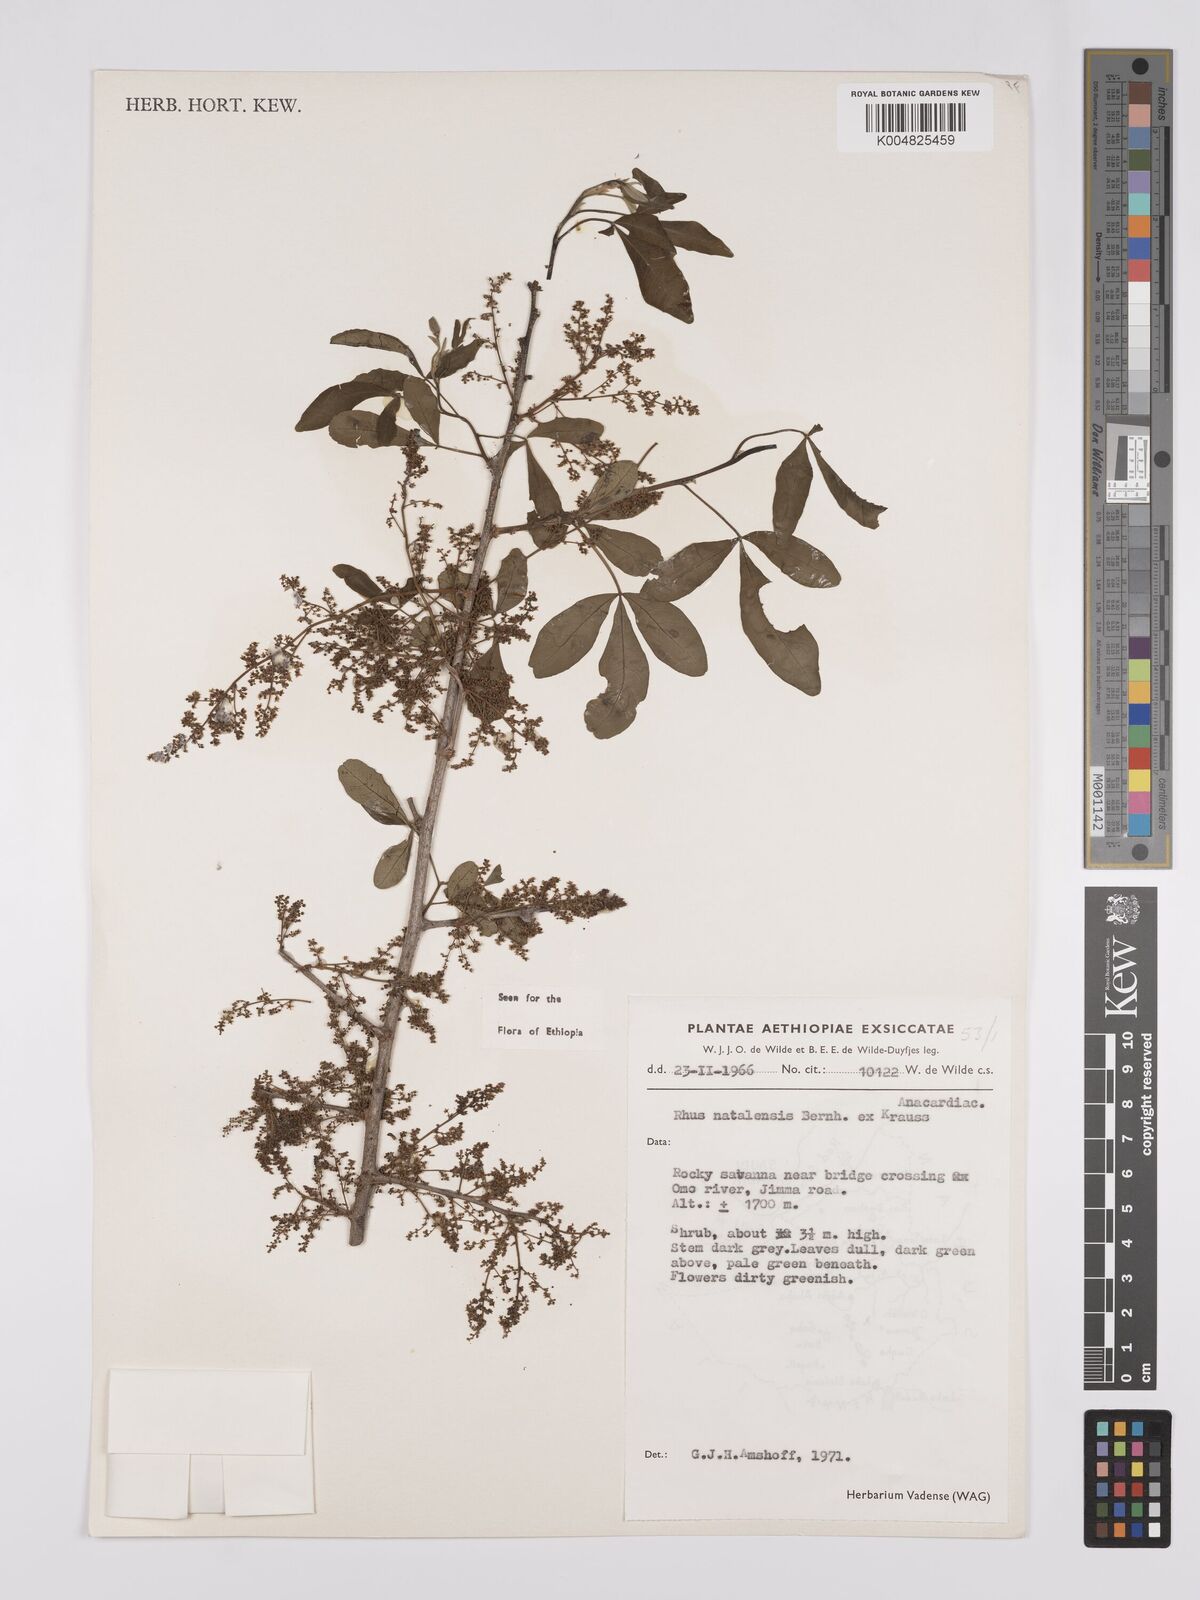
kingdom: Plantae
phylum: Tracheophyta
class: Magnoliopsida
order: Sapindales
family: Anacardiaceae
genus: Searsia
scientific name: Searsia natalensis
